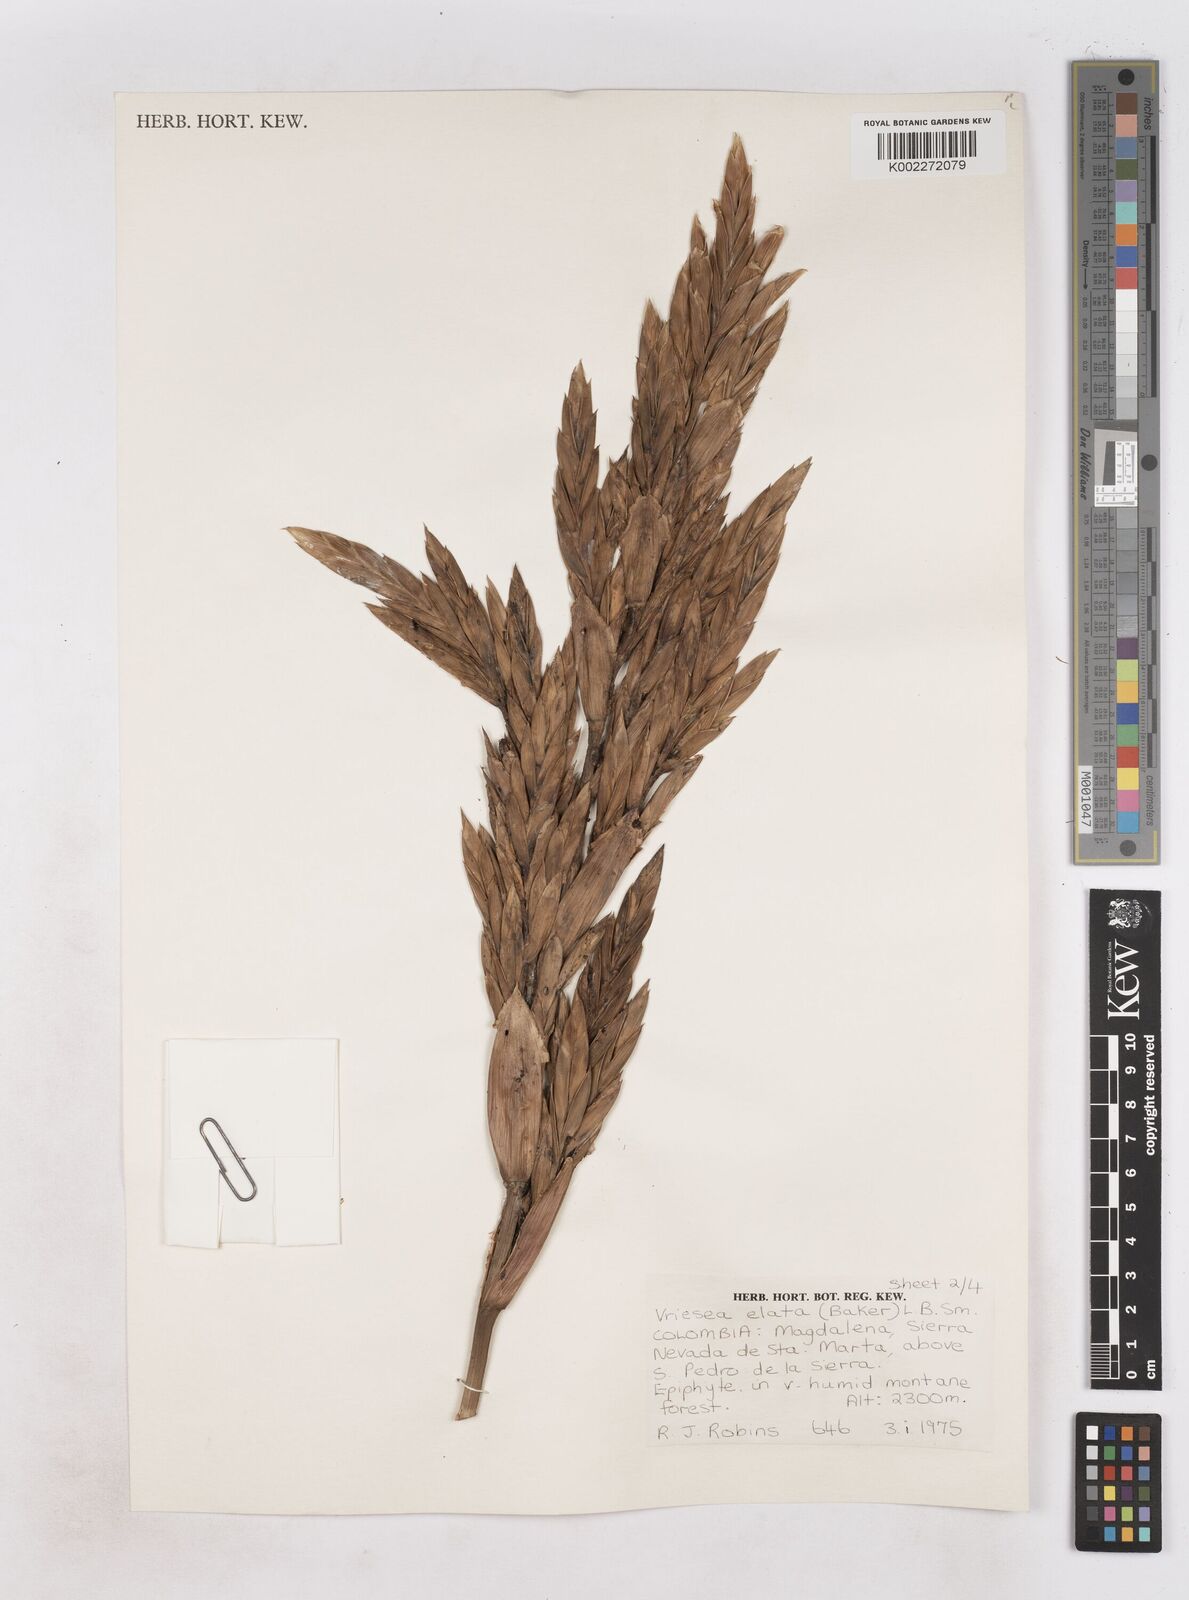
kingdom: Plantae
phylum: Tracheophyta
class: Liliopsida
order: Poales
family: Bromeliaceae
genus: Vriesea
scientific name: Vriesea elata
